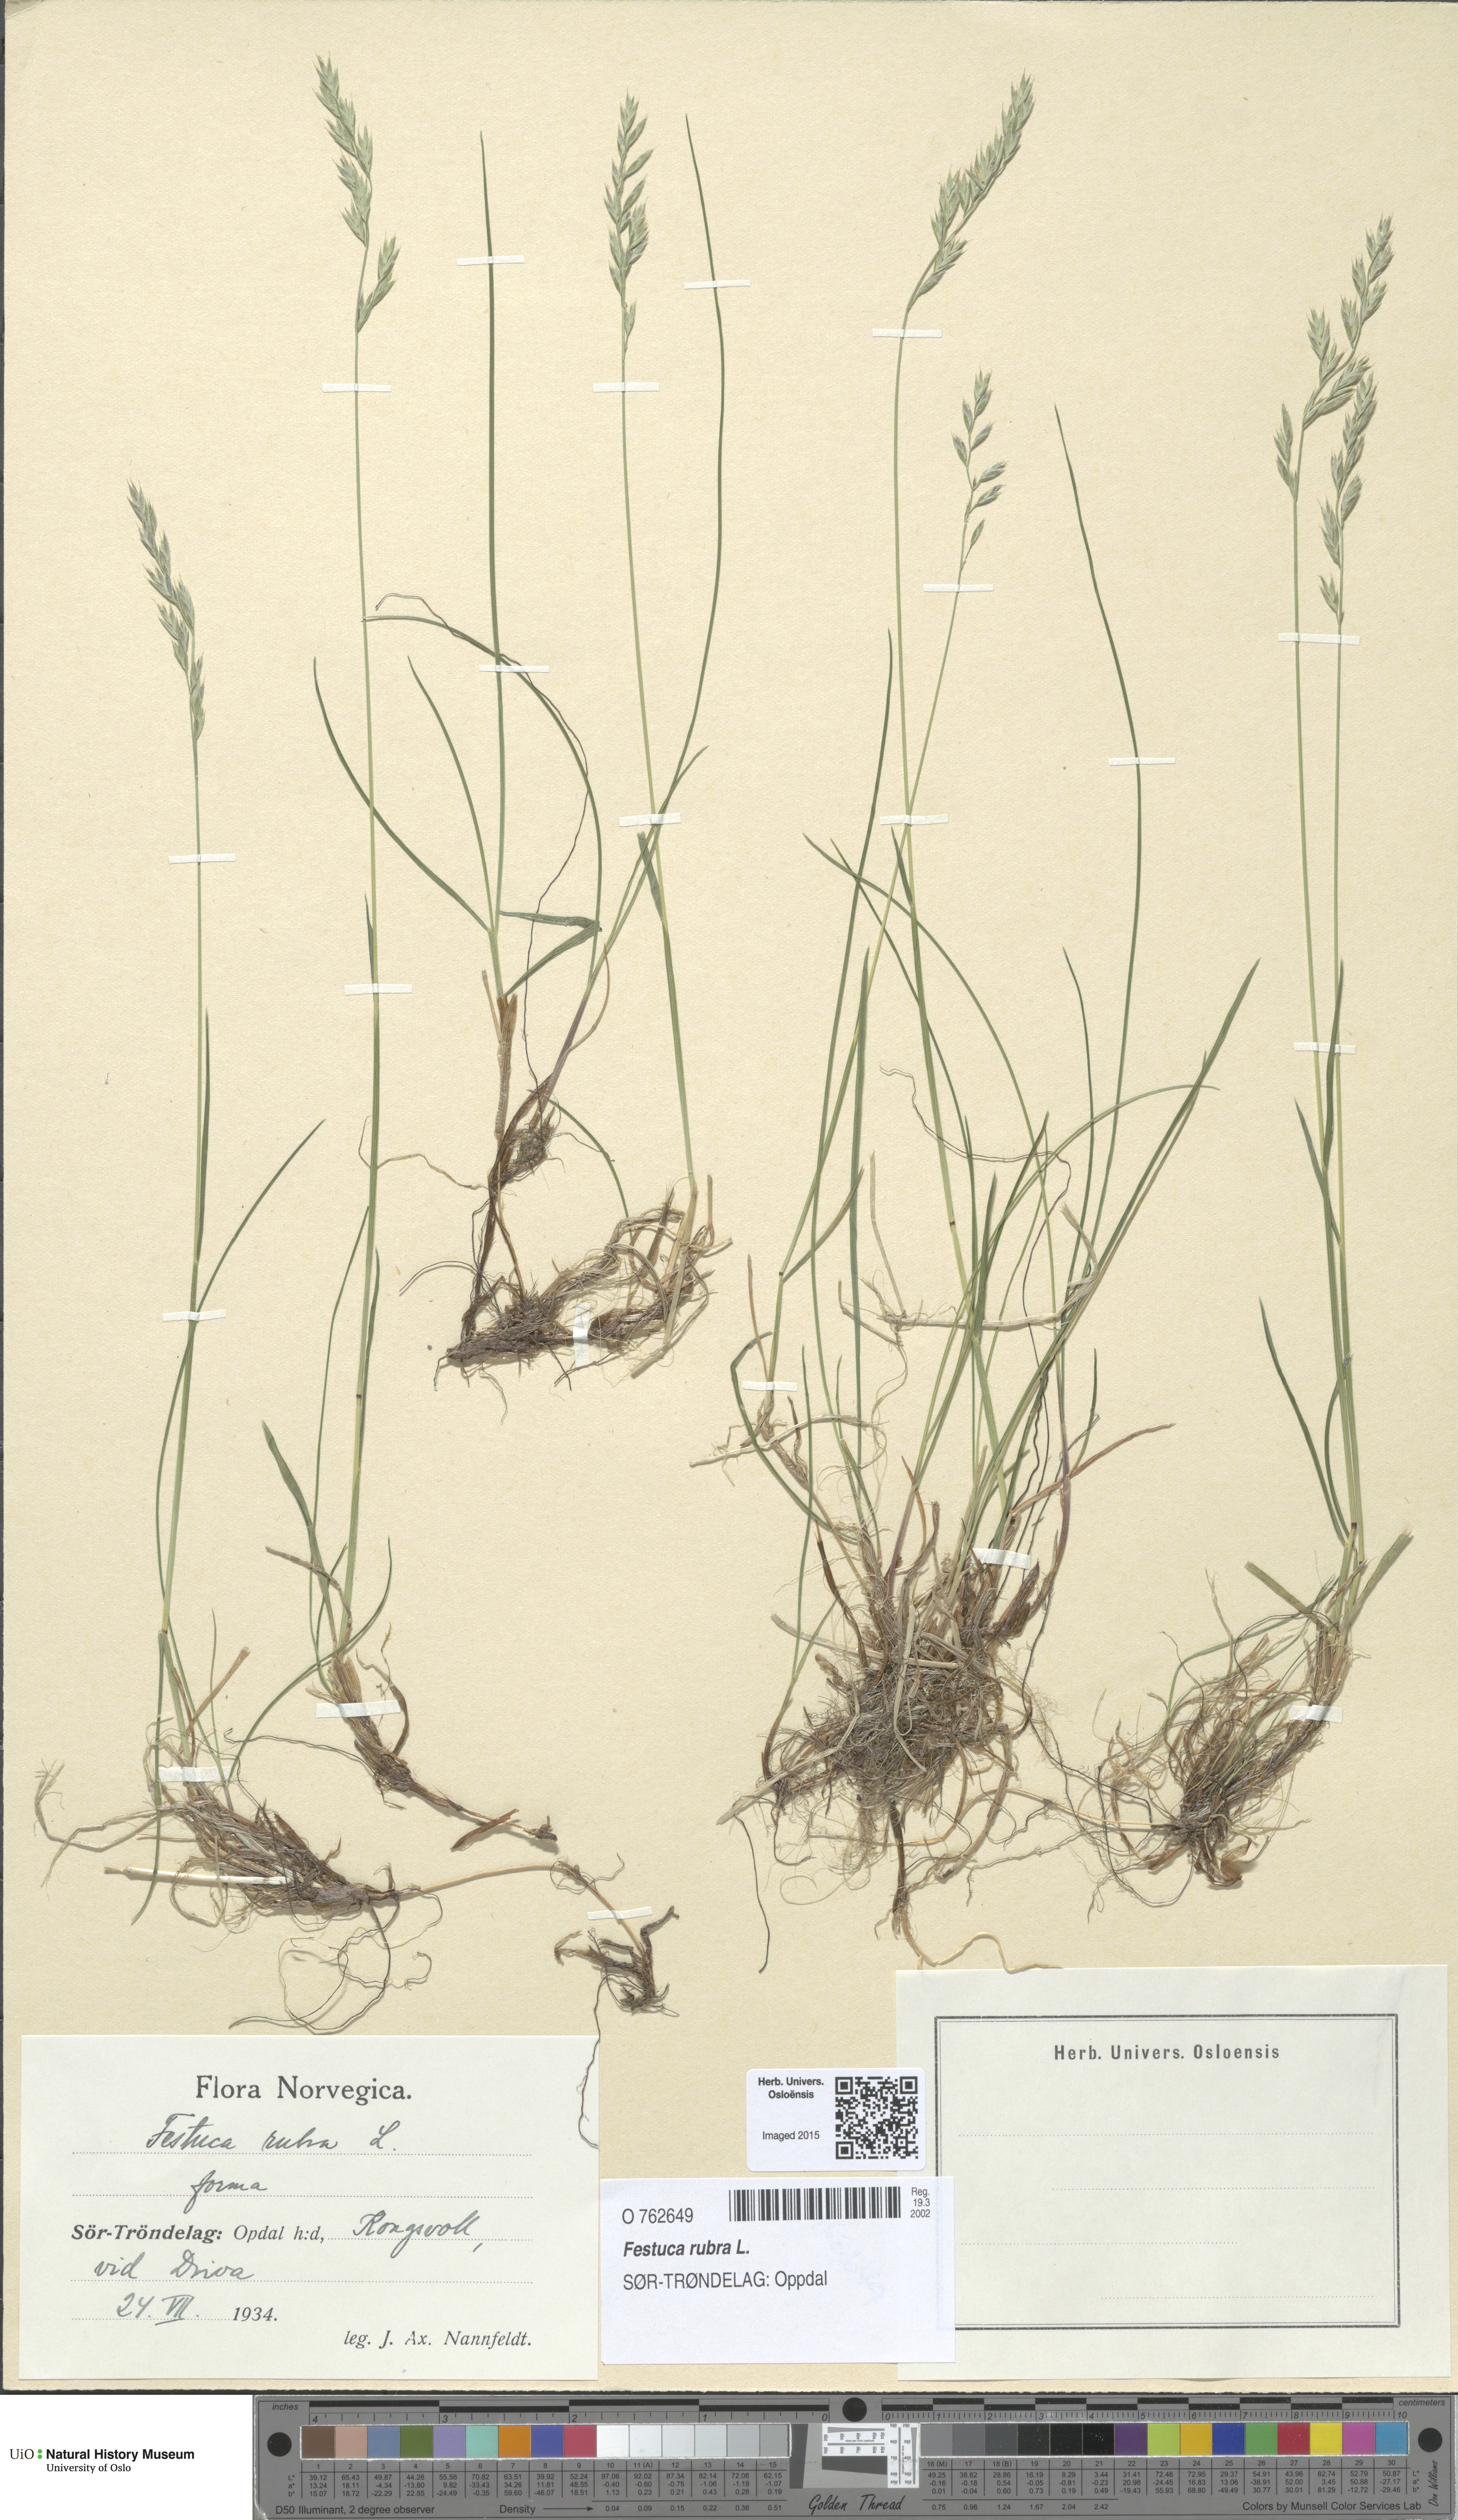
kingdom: Plantae
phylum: Tracheophyta
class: Liliopsida
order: Poales
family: Poaceae
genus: Festuca
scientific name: Festuca rubra
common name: Red fescue
